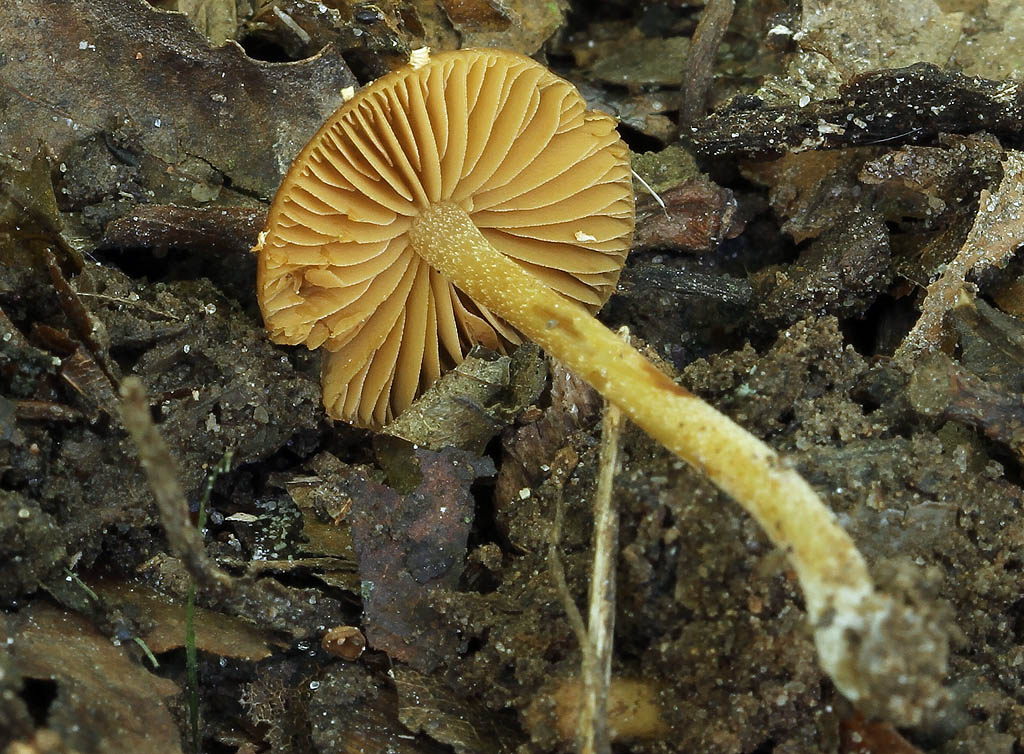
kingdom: Fungi
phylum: Basidiomycota
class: Agaricomycetes
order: Agaricales
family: Bolbitiaceae
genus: Conocybe
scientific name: Conocybe brunnea
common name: slør-dansehat
